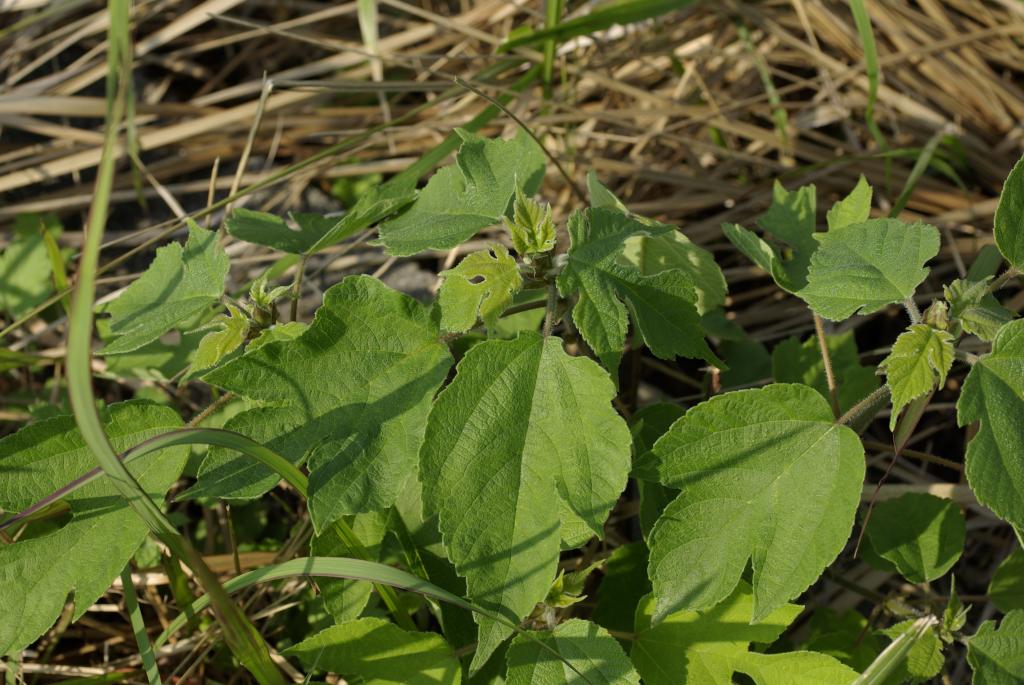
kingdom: Plantae
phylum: Tracheophyta
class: Magnoliopsida
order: Rosales
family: Moraceae
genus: Broussonetia
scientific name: Broussonetia papyrifera
